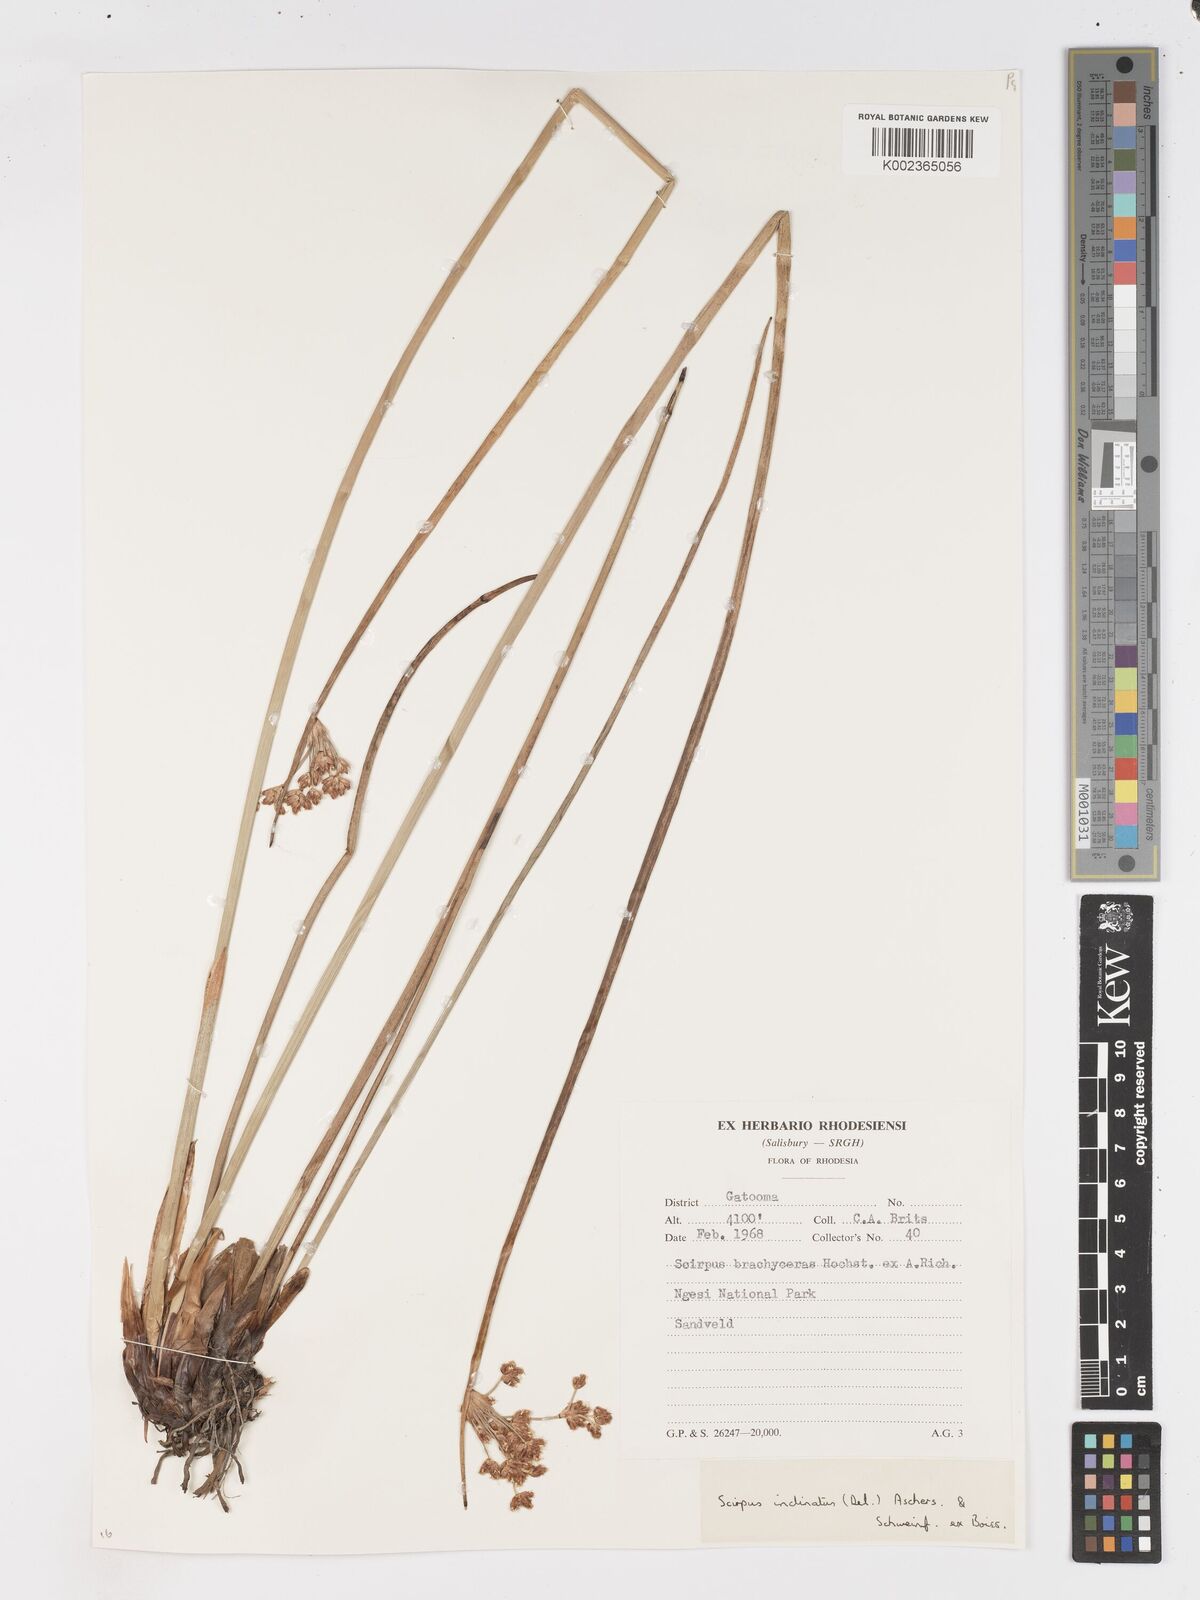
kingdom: Plantae
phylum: Tracheophyta
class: Liliopsida
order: Poales
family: Cyperaceae
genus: Schoenoplectiella
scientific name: Schoenoplectiella corymbosa
